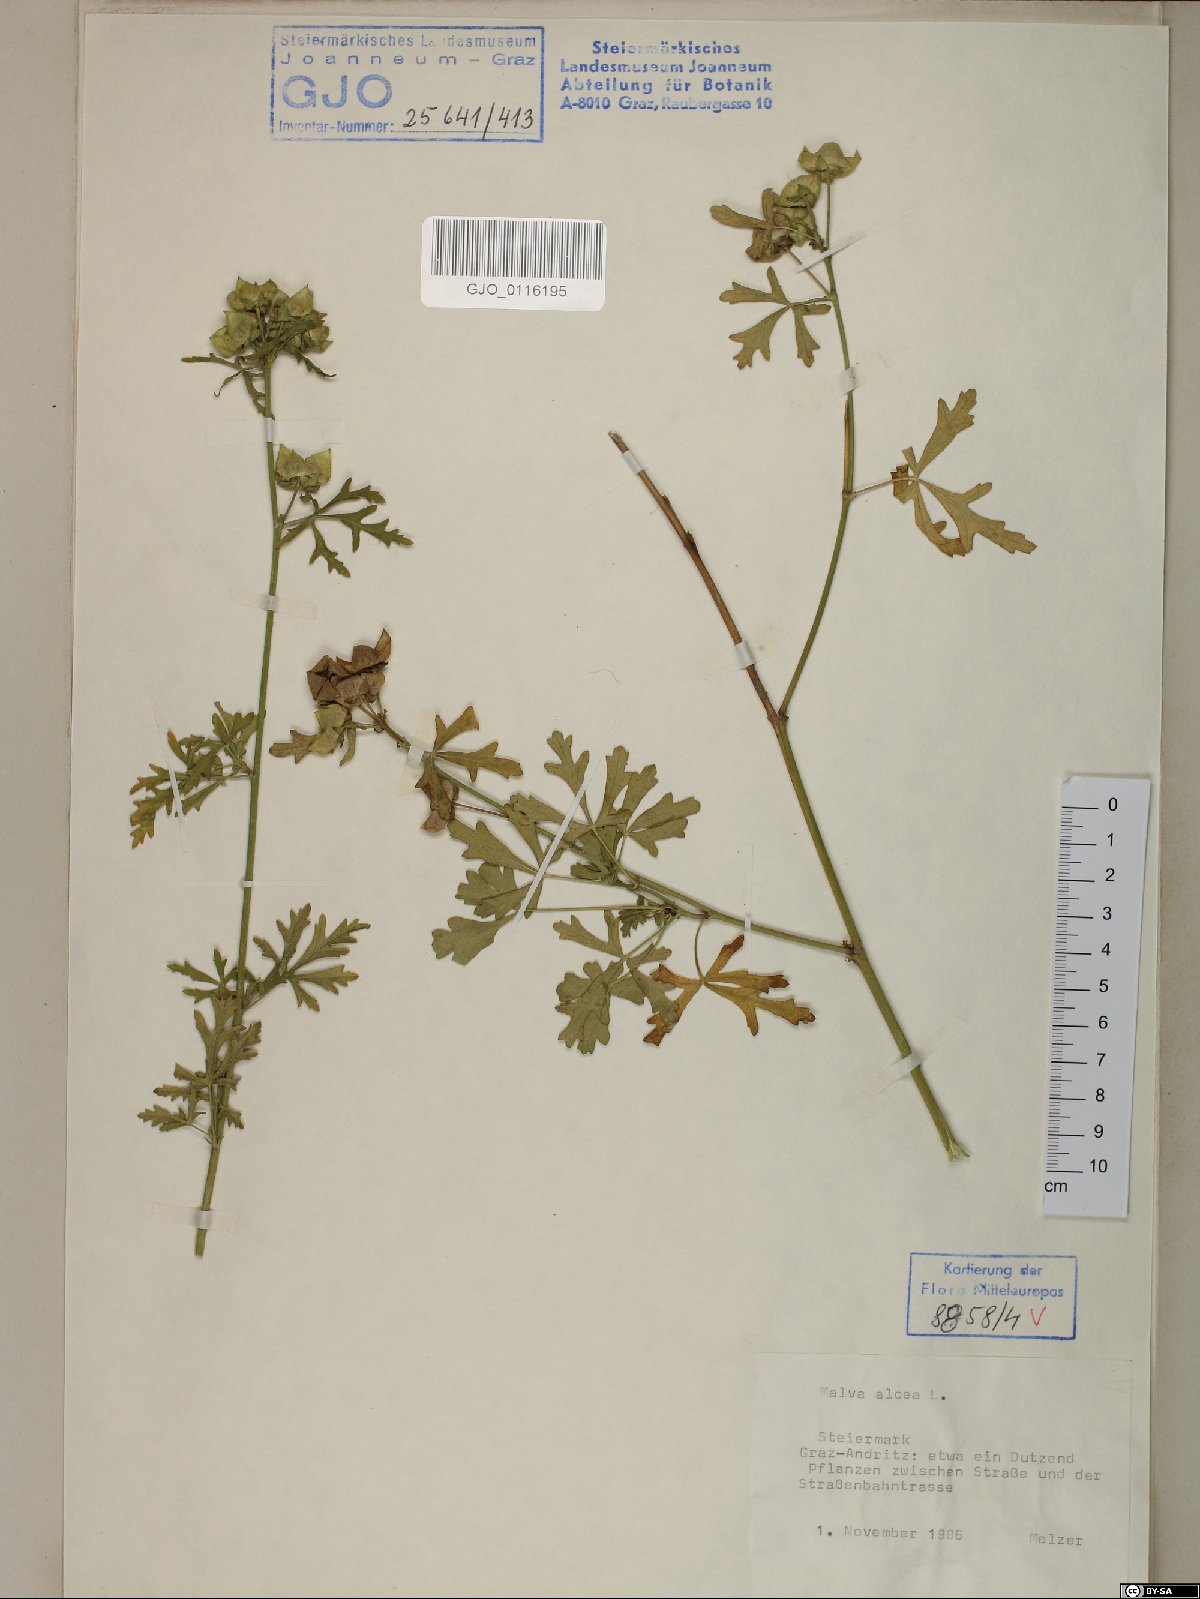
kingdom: Plantae
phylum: Tracheophyta
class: Magnoliopsida
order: Malvales
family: Malvaceae
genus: Malva
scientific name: Malva alcea
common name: Greater musk-mallow
